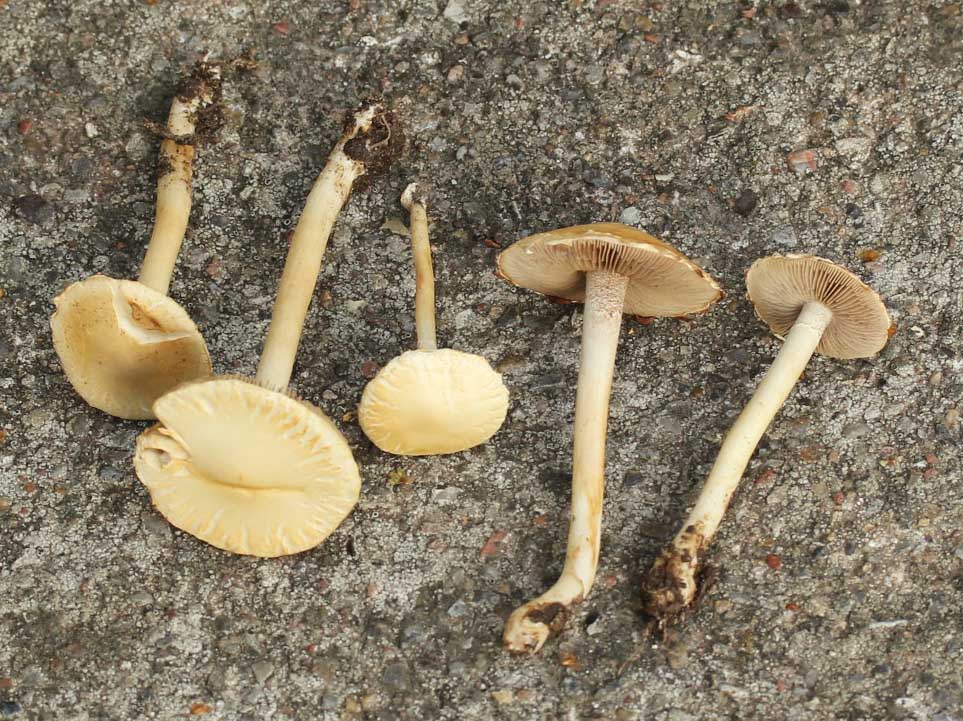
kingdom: Fungi
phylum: Basidiomycota
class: Agaricomycetes
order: Agaricales
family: Strophariaceae
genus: Leratiomyces
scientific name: Leratiomyces percevalii
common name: træflis-bredblad
